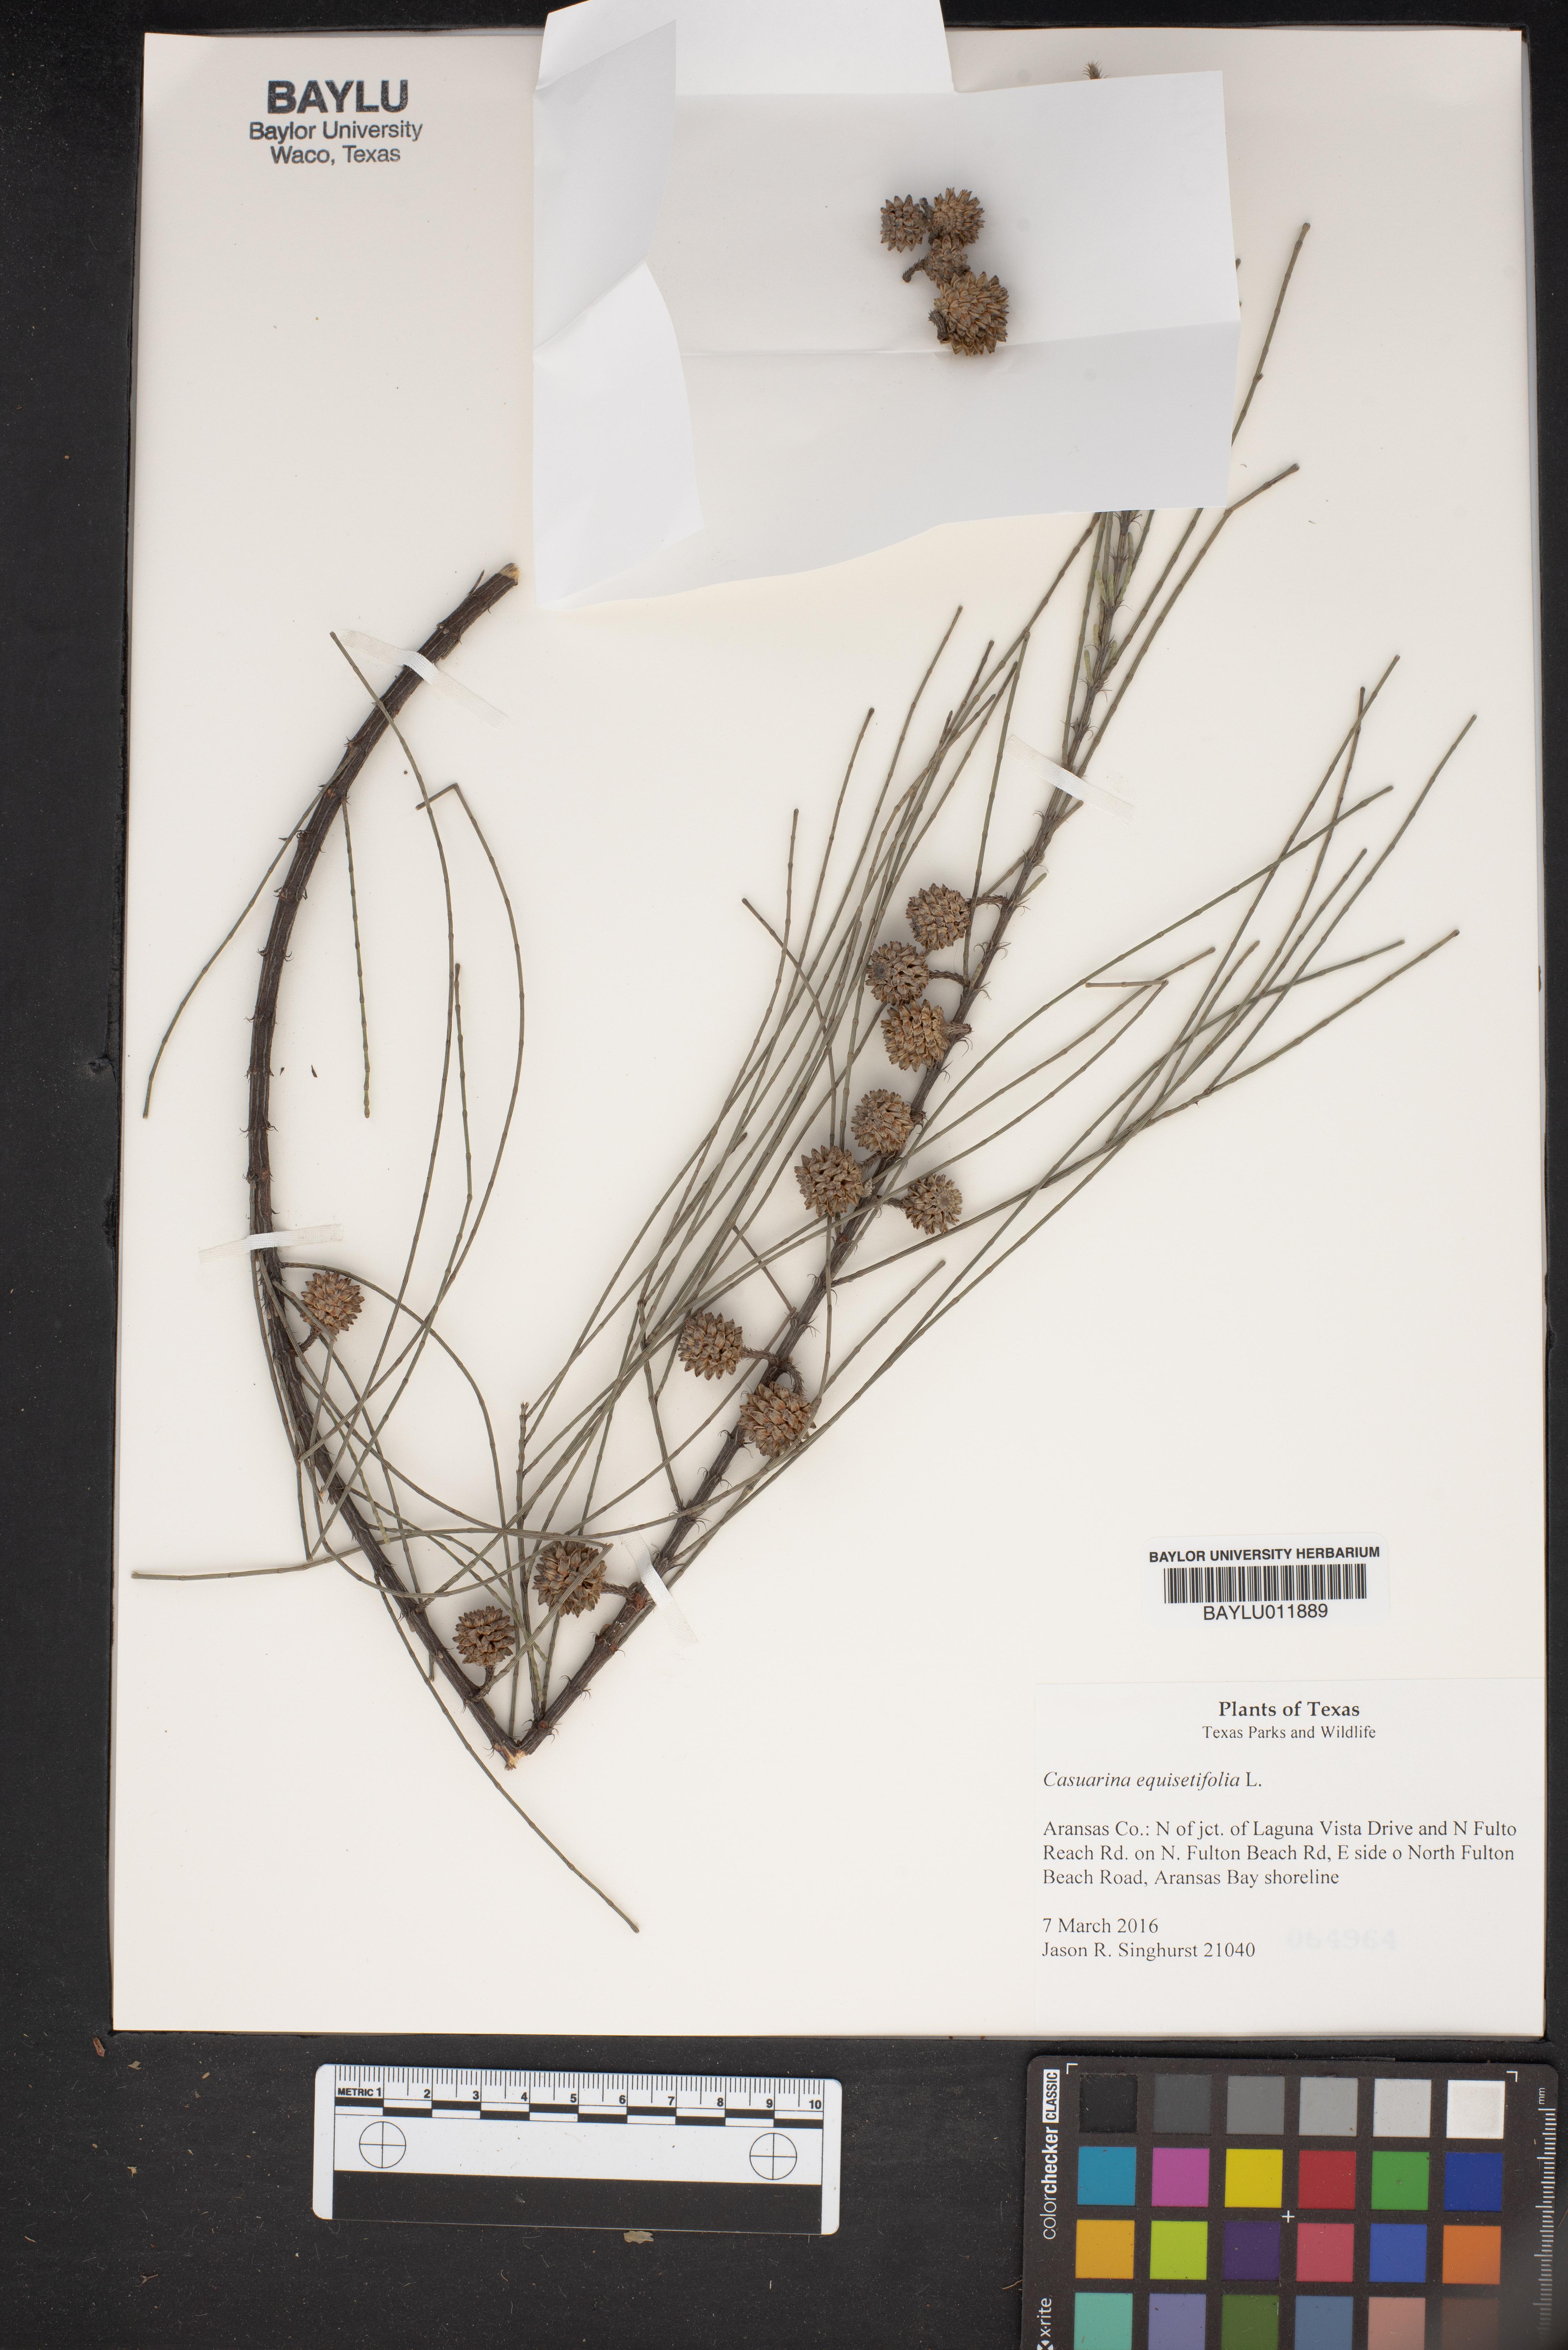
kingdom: Plantae
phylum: Tracheophyta
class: Magnoliopsida
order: Fagales
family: Casuarinaceae
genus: Casuarina
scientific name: Casuarina equisetifolia
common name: Beach sheoak
